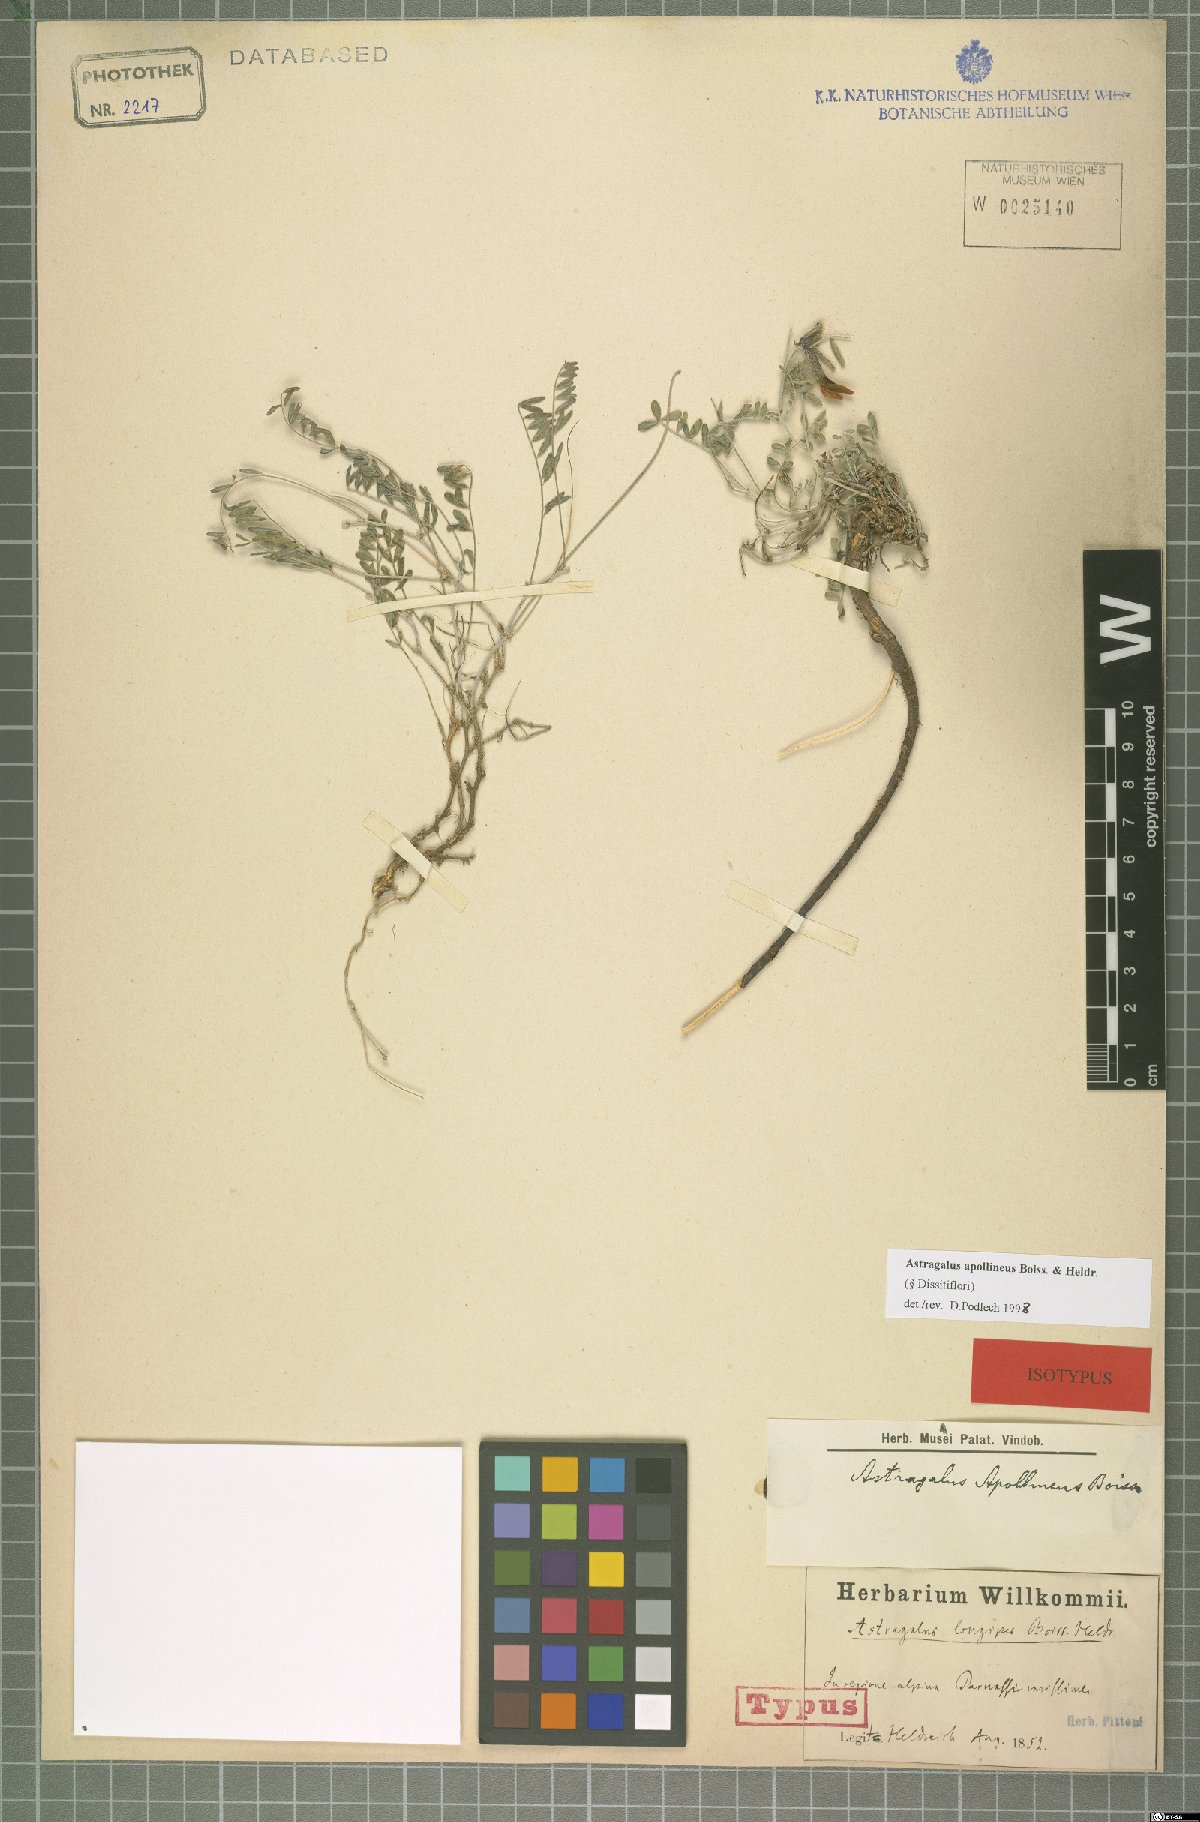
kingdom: Plantae
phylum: Tracheophyta
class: Magnoliopsida
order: Fabales
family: Fabaceae
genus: Astragalus
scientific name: Astragalus apollineus
